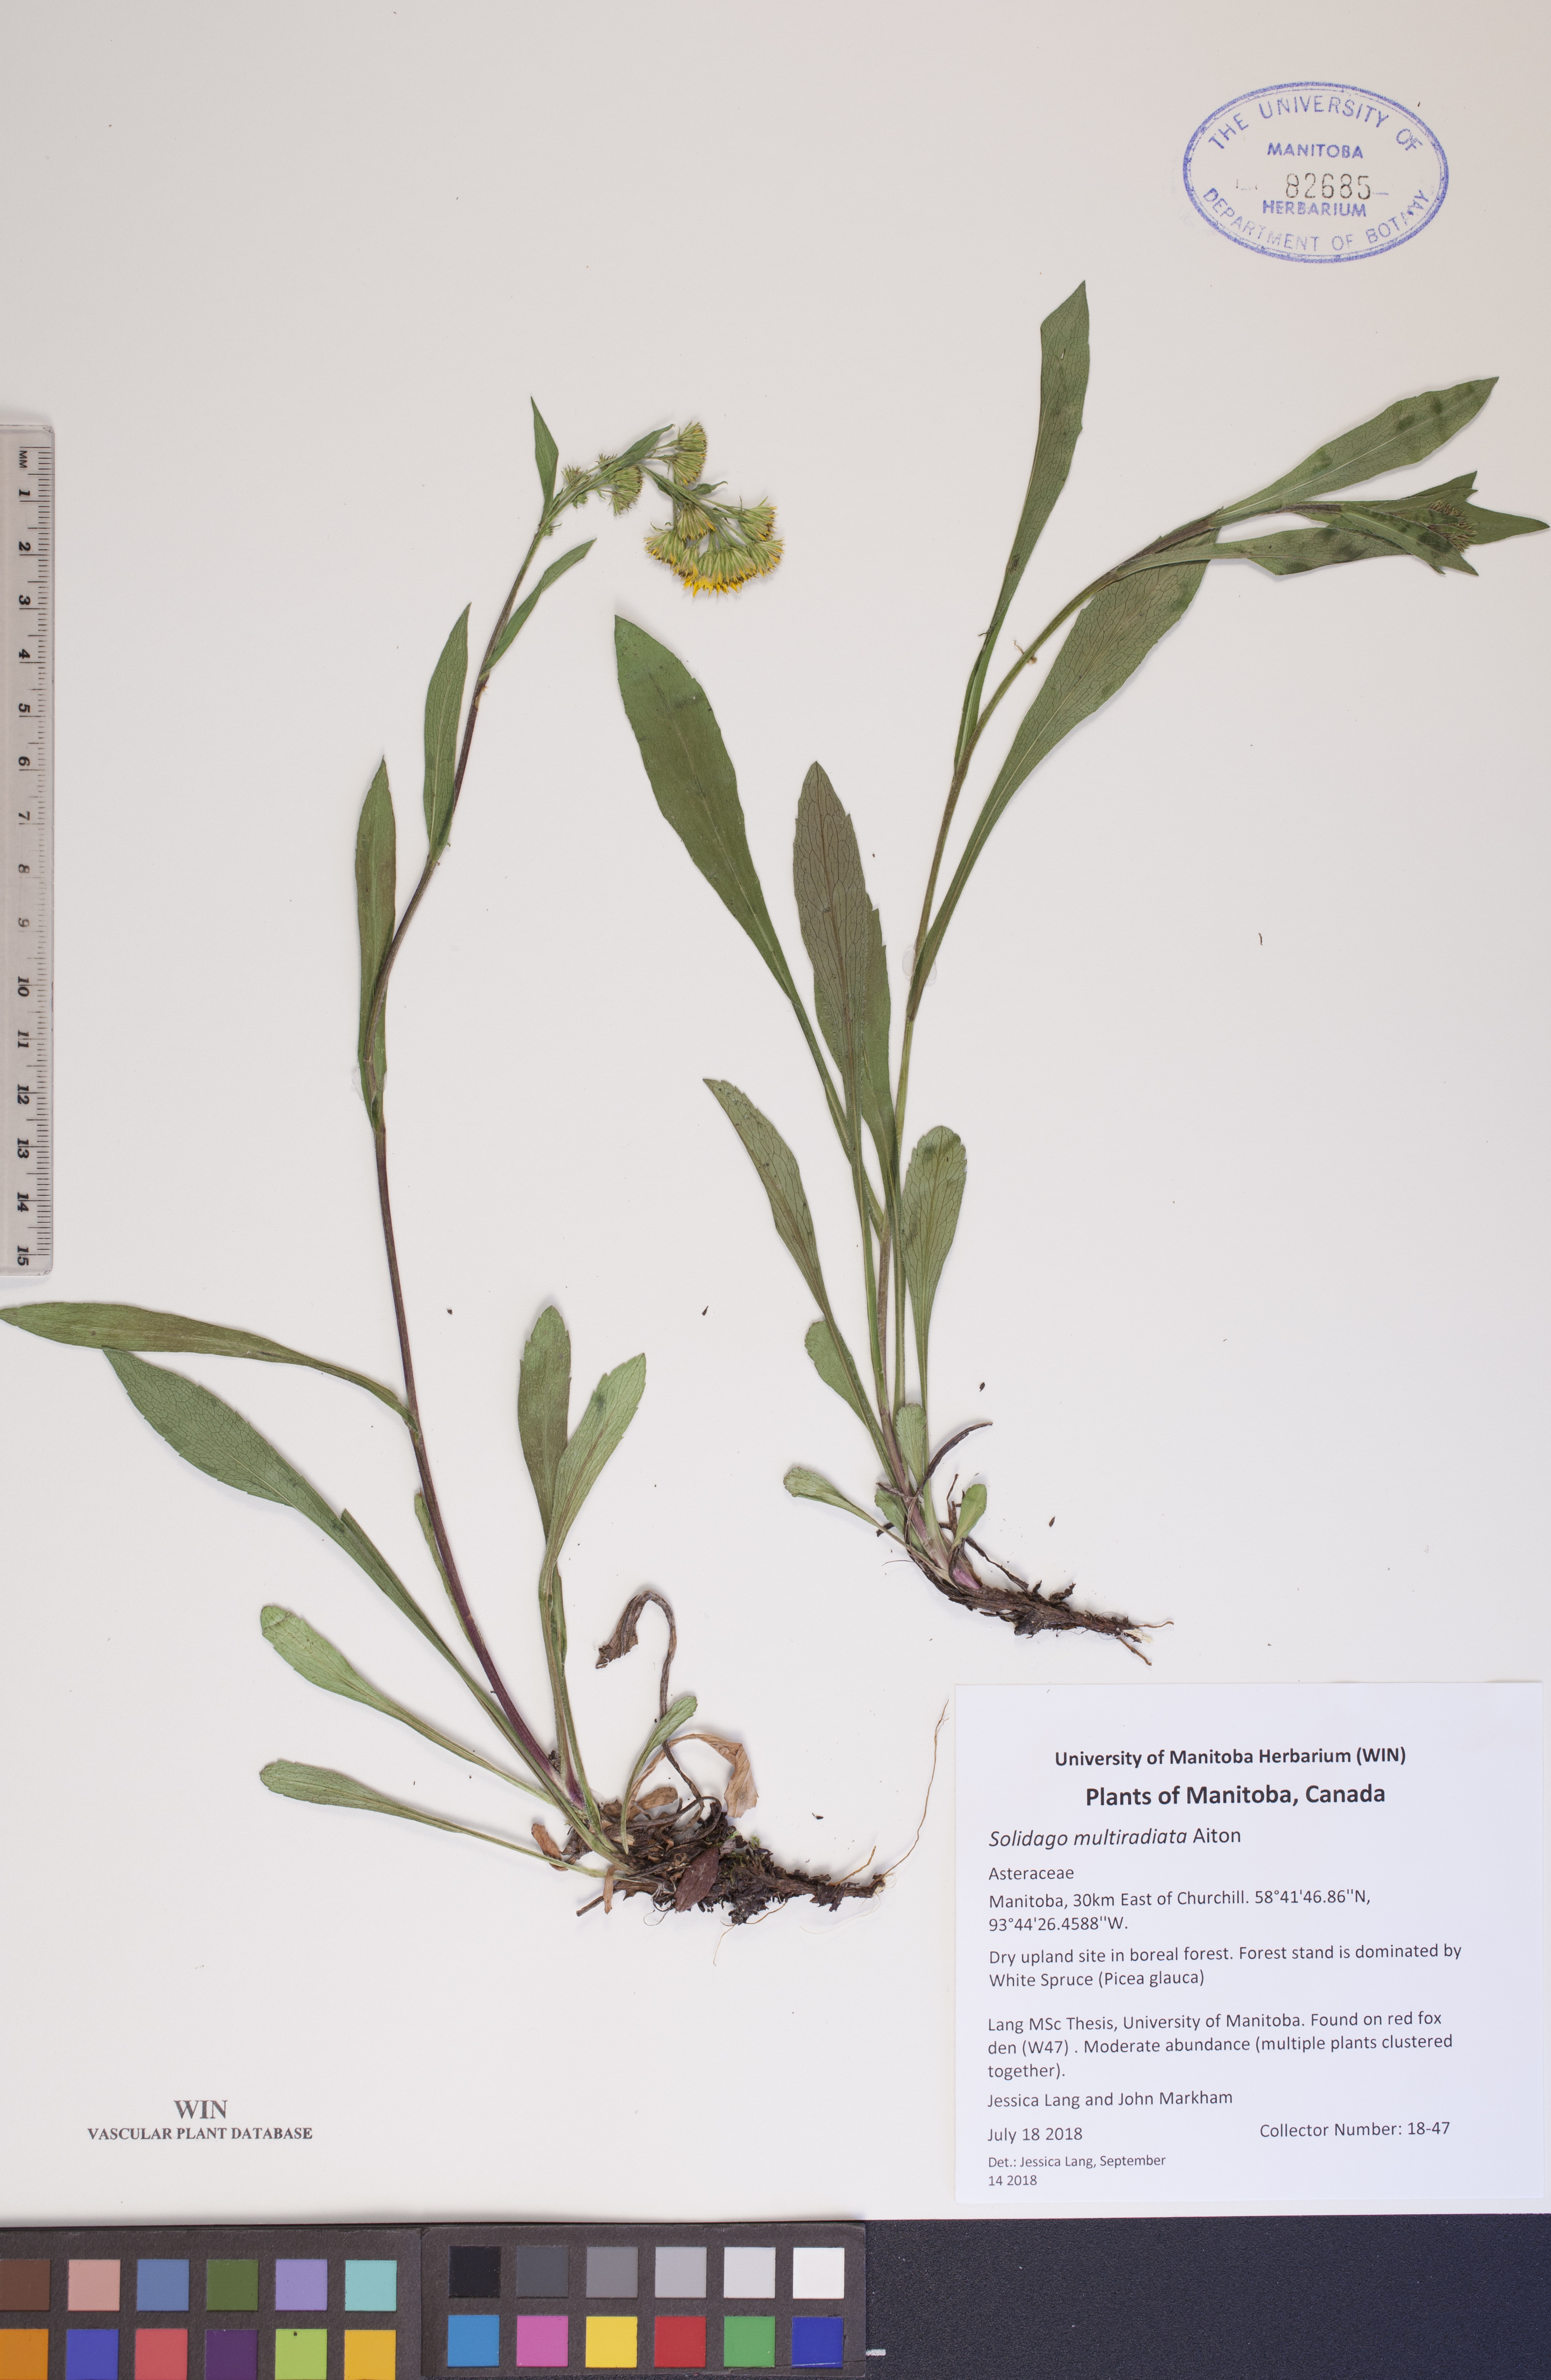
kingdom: Plantae
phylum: Tracheophyta
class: Magnoliopsida
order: Asterales
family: Asteraceae
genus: Solidago
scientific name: Solidago multiradiata
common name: Northern goldenrod
